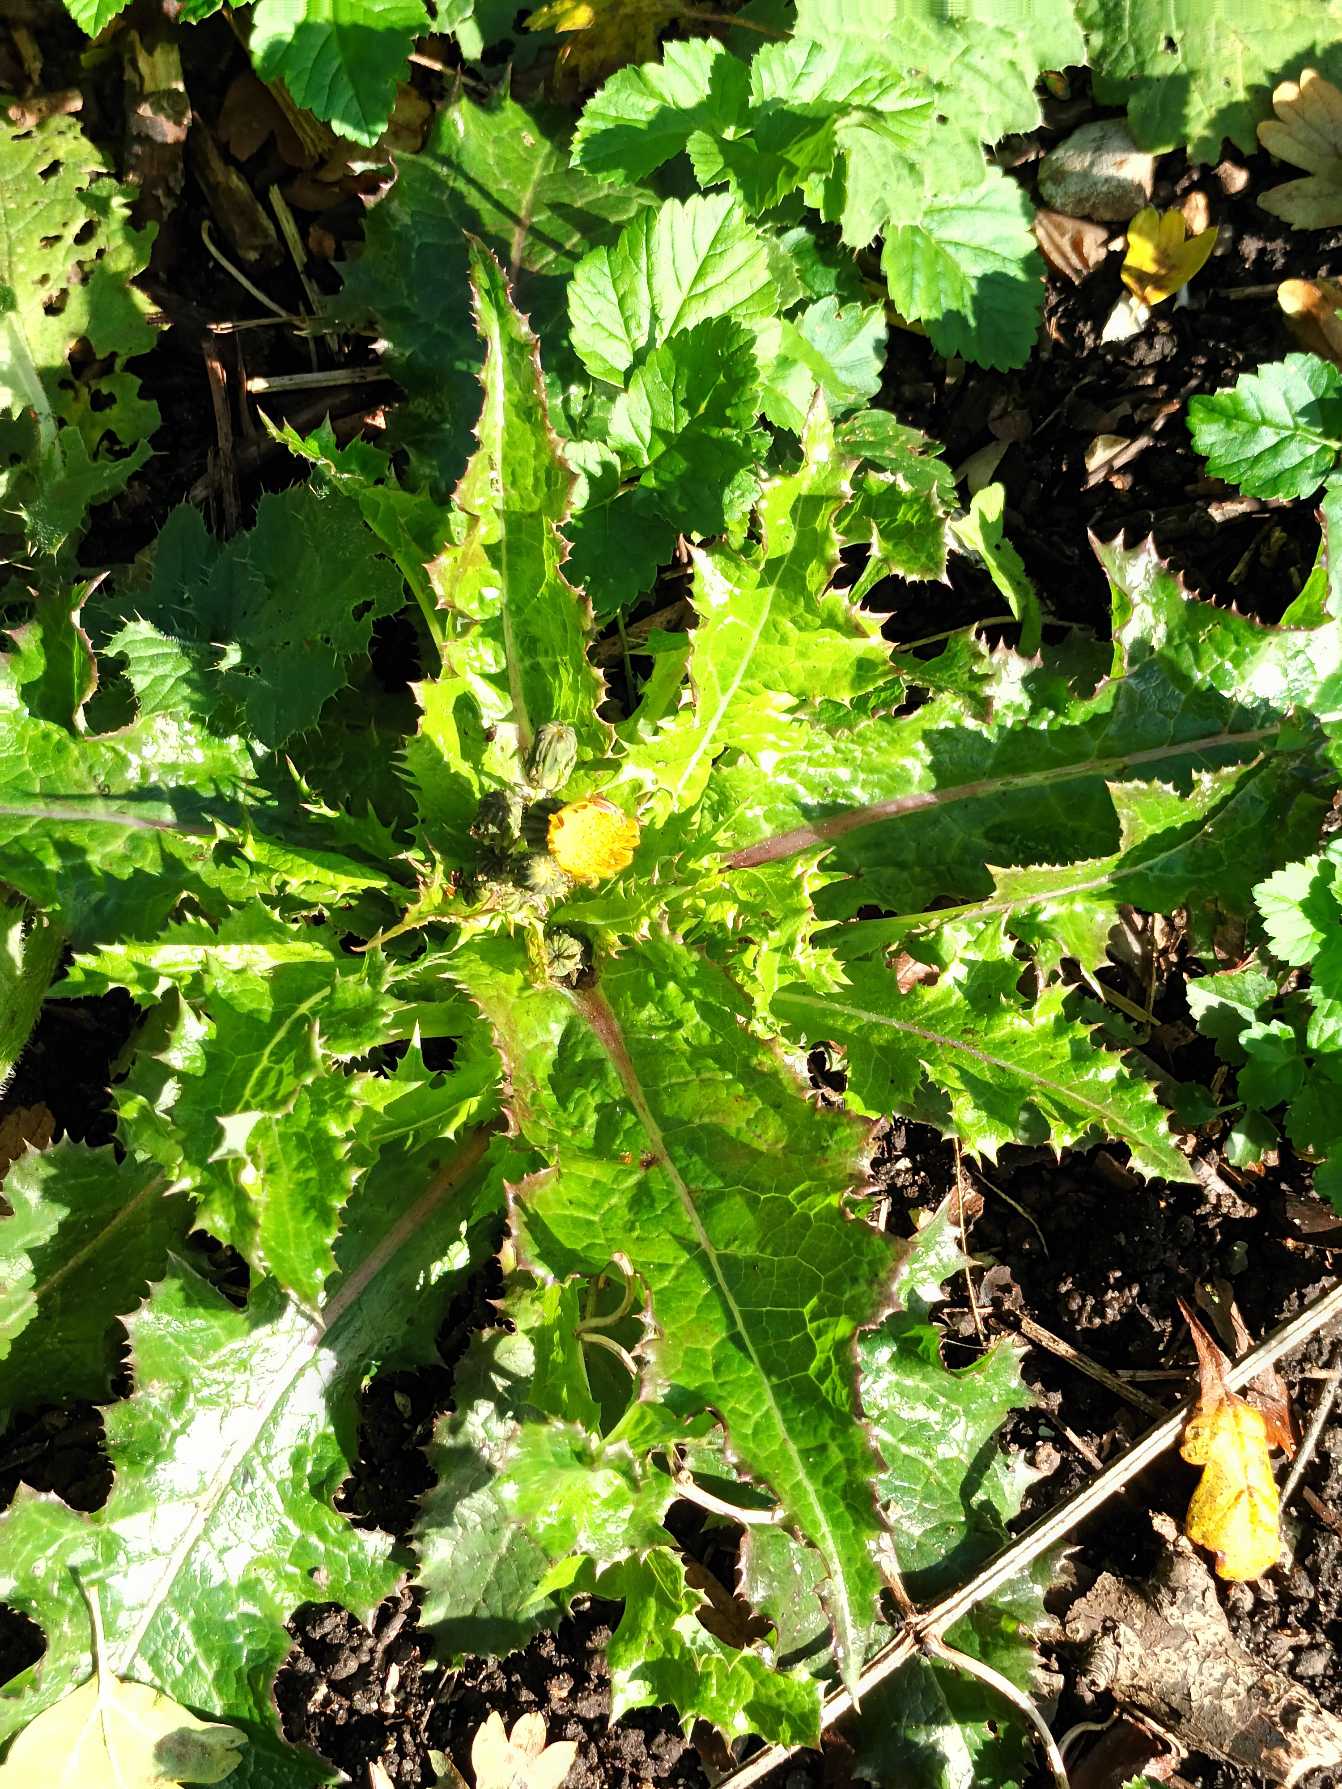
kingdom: Plantae
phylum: Tracheophyta
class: Magnoliopsida
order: Asterales
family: Asteraceae
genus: Sonchus
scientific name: Sonchus asper
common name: Ru svinemælk
